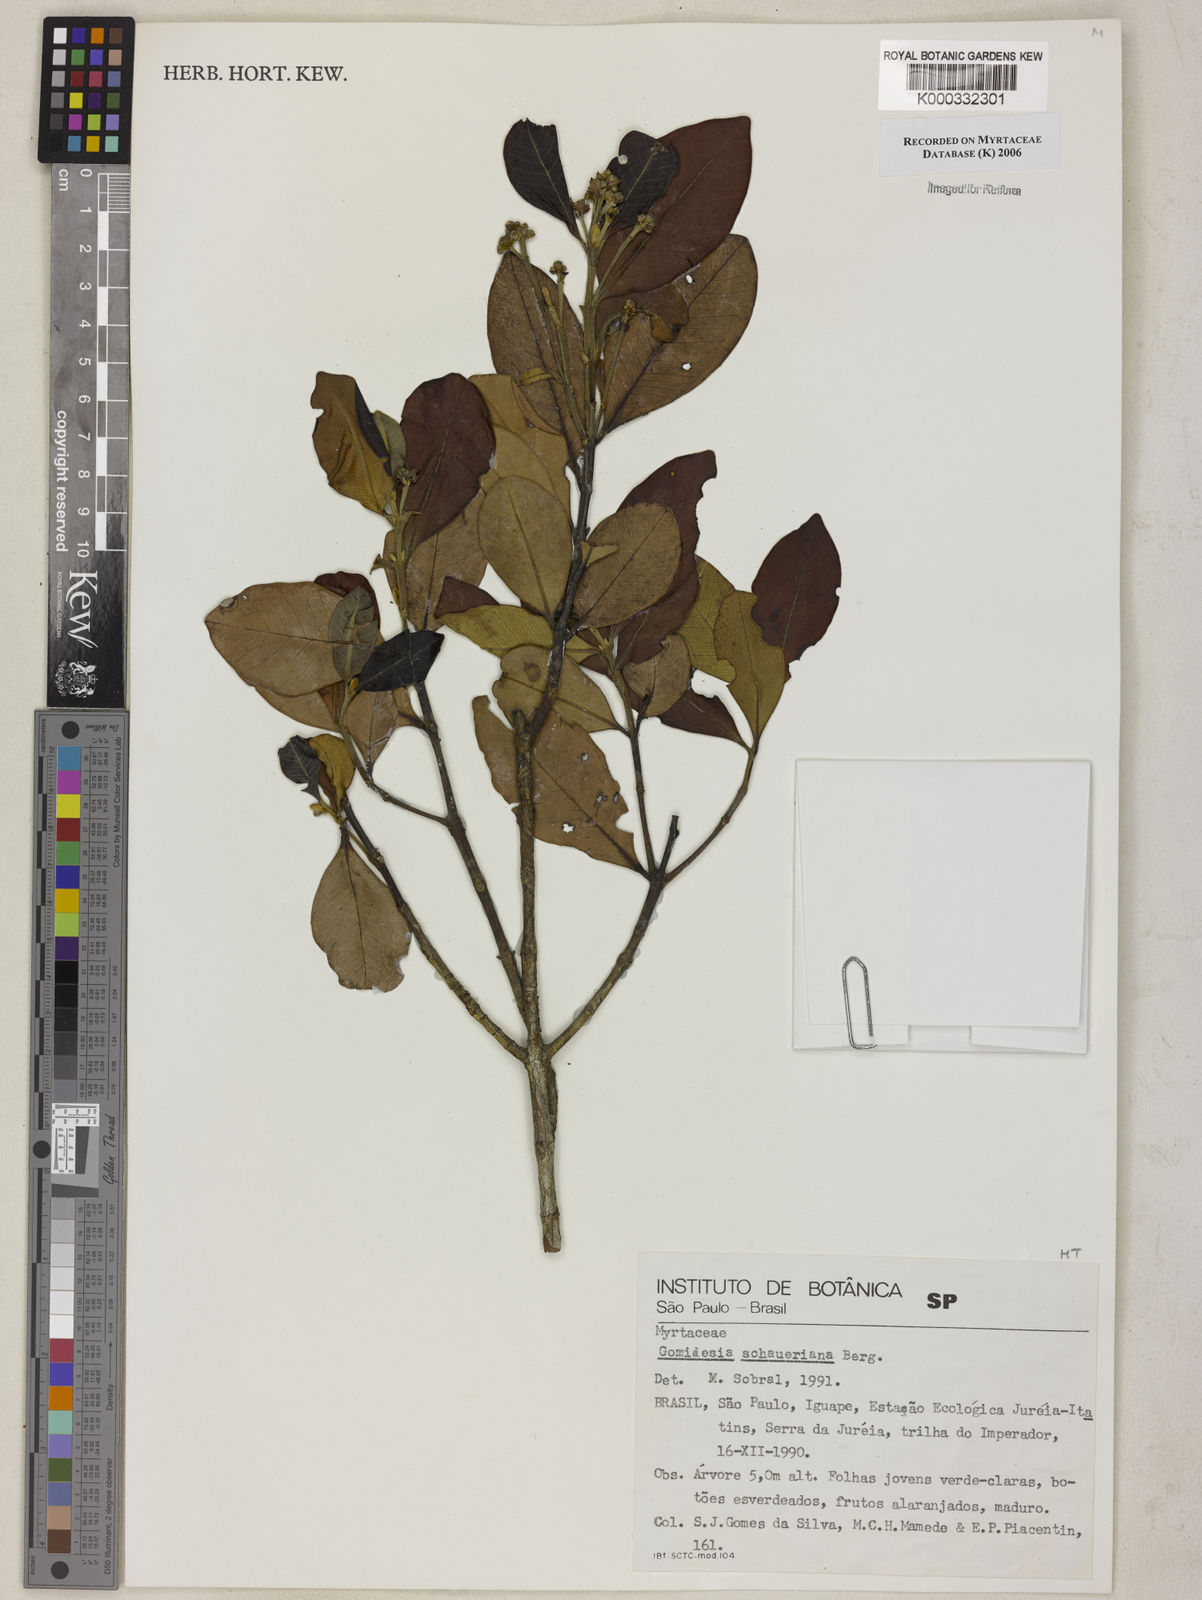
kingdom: Plantae
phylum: Tracheophyta
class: Magnoliopsida
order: Myrtales
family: Myrtaceae
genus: Myrcia
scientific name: Myrcia freyreissiana
